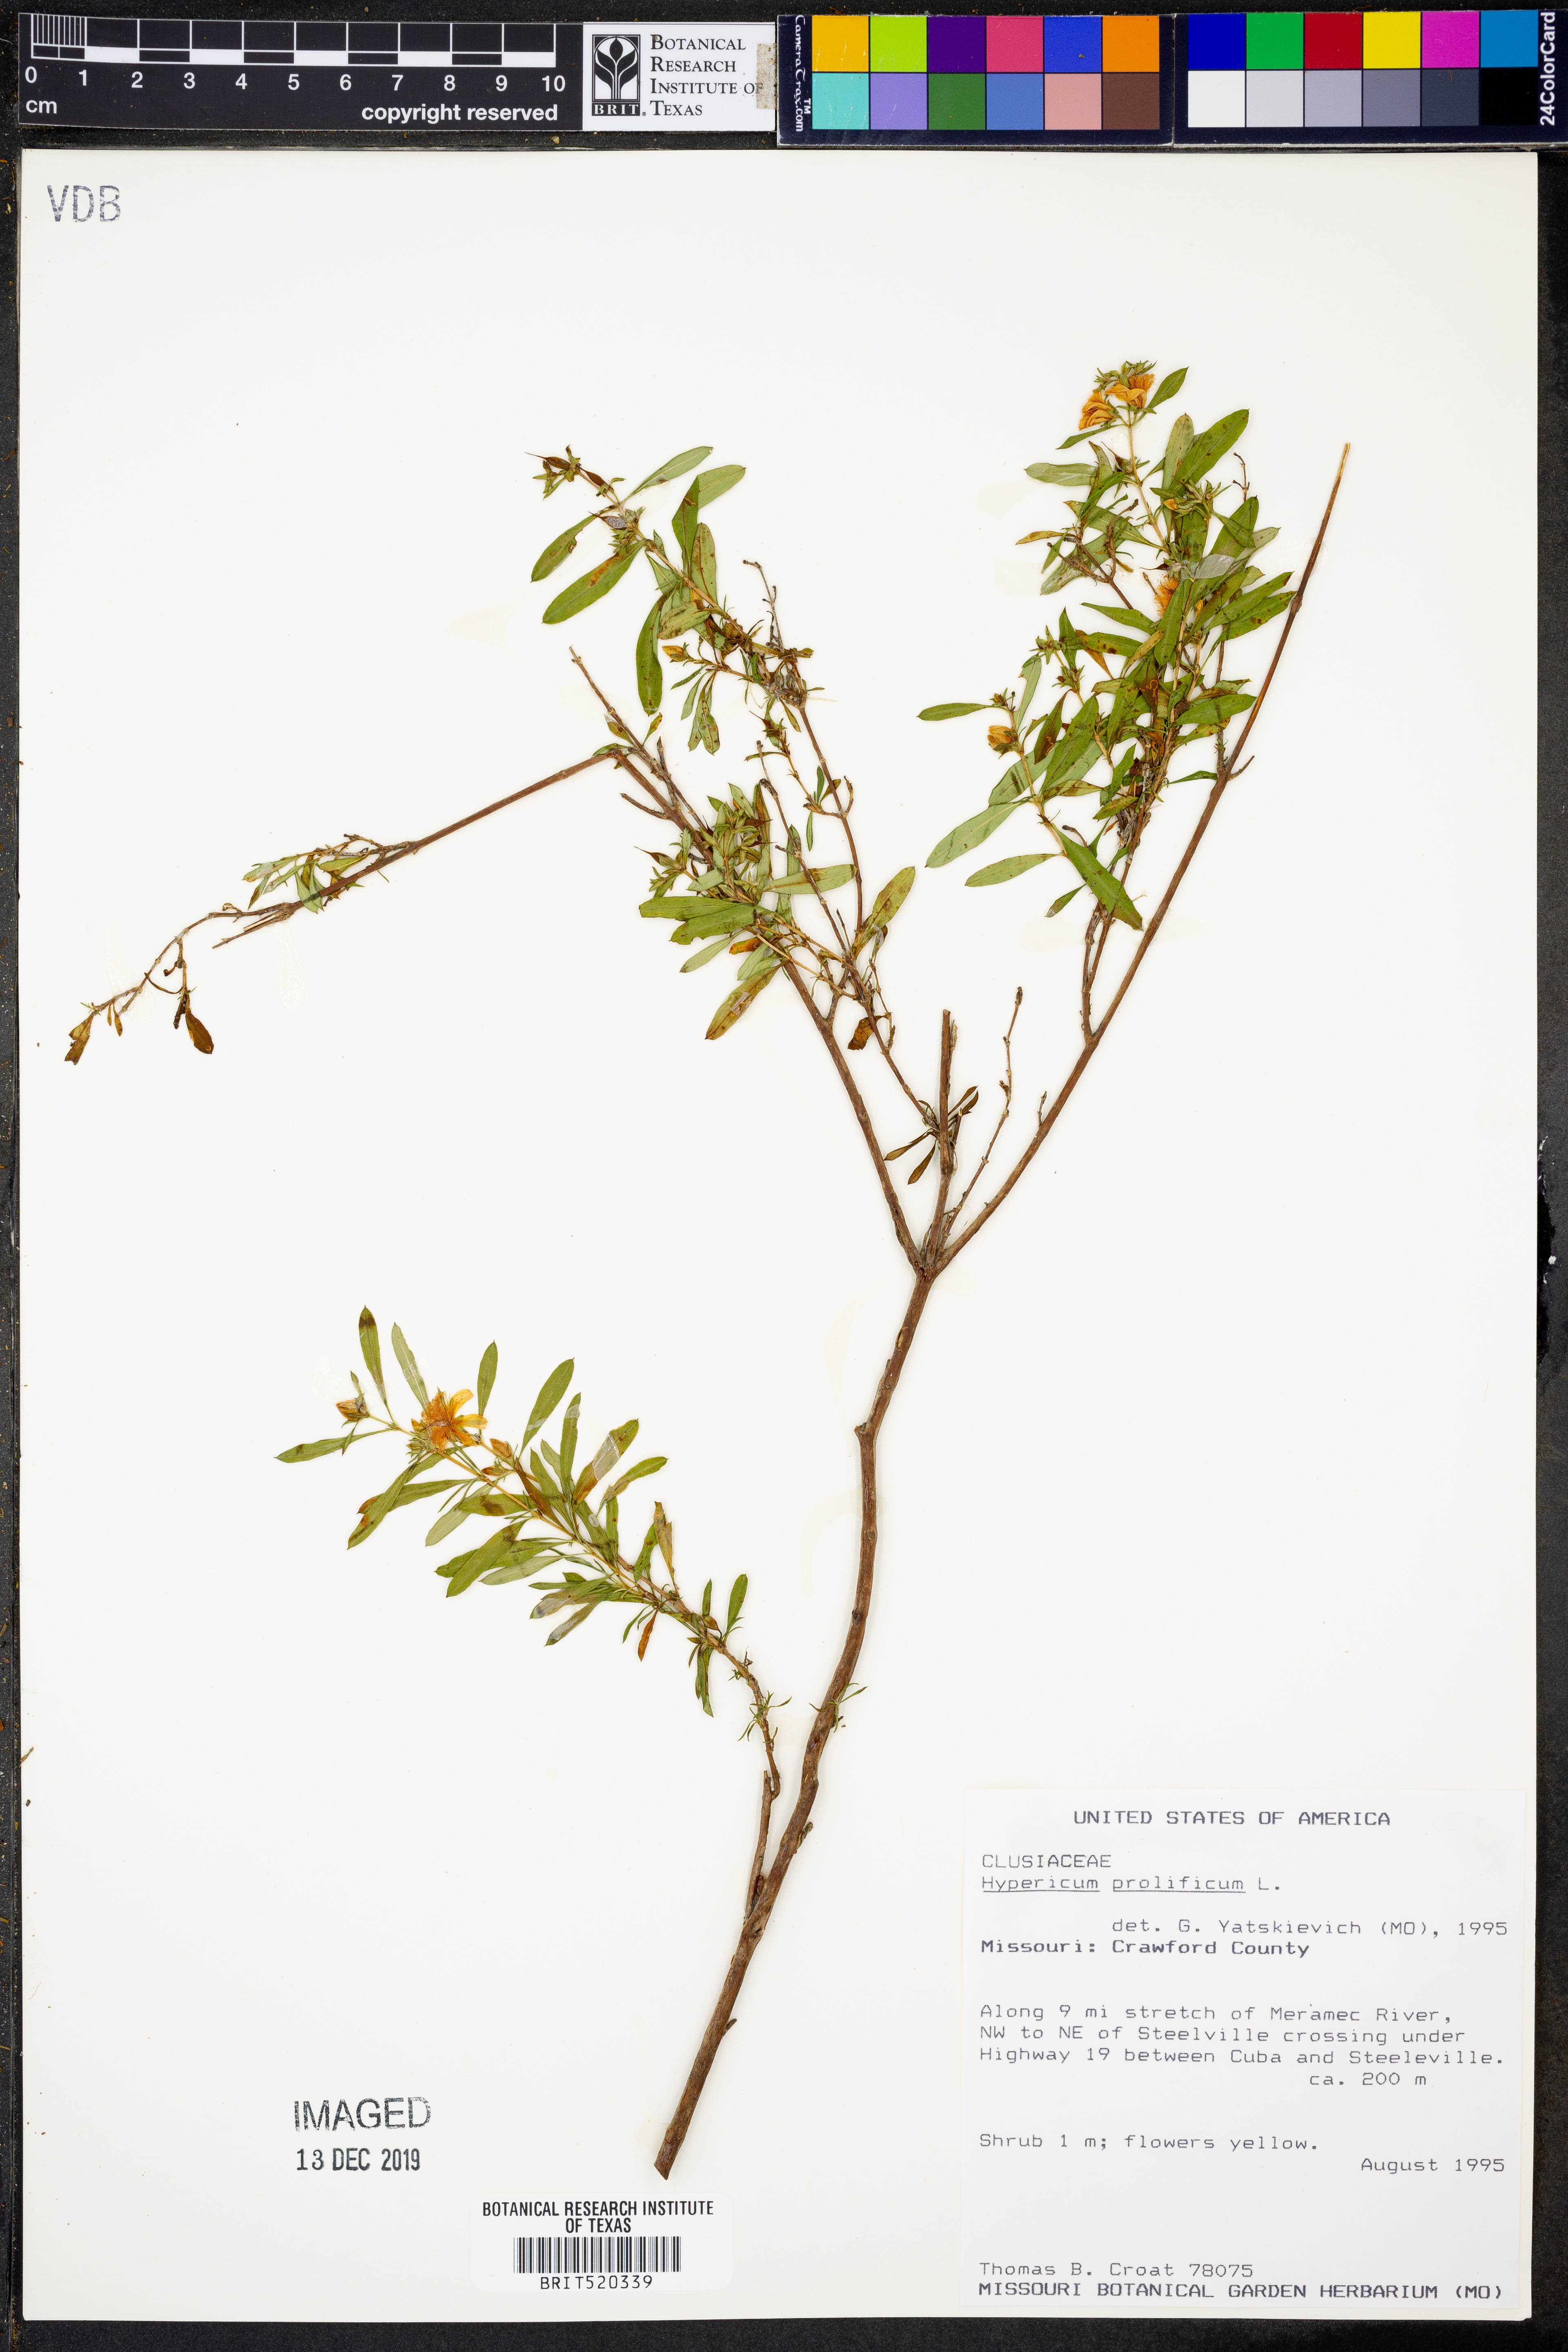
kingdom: Plantae
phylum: Tracheophyta
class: Magnoliopsida
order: Malpighiales
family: Hypericaceae
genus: Hypericum
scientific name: Hypericum prolificum
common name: Shrubby st. john's-wort
